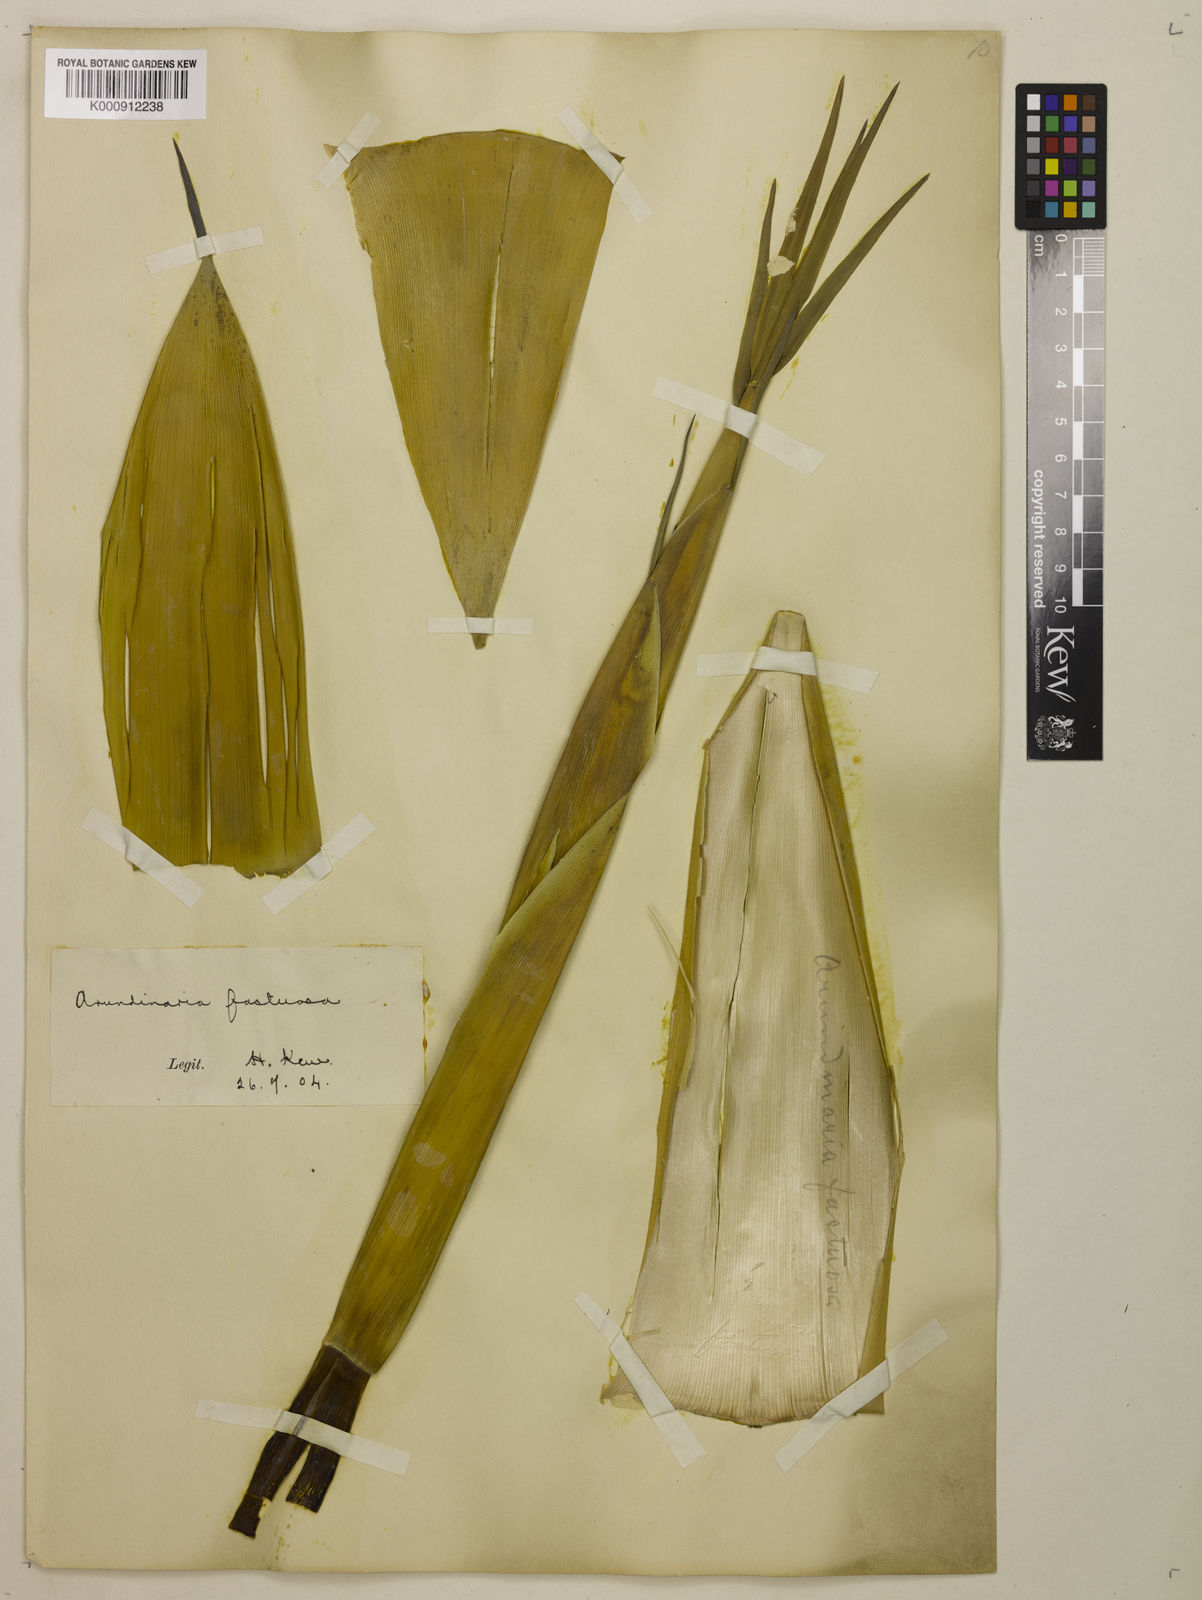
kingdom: Plantae
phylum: Tracheophyta
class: Liliopsida
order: Poales
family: Poaceae
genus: Semiarundinaria
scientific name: Semiarundinaria fastuosa
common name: Narihira bamboo
